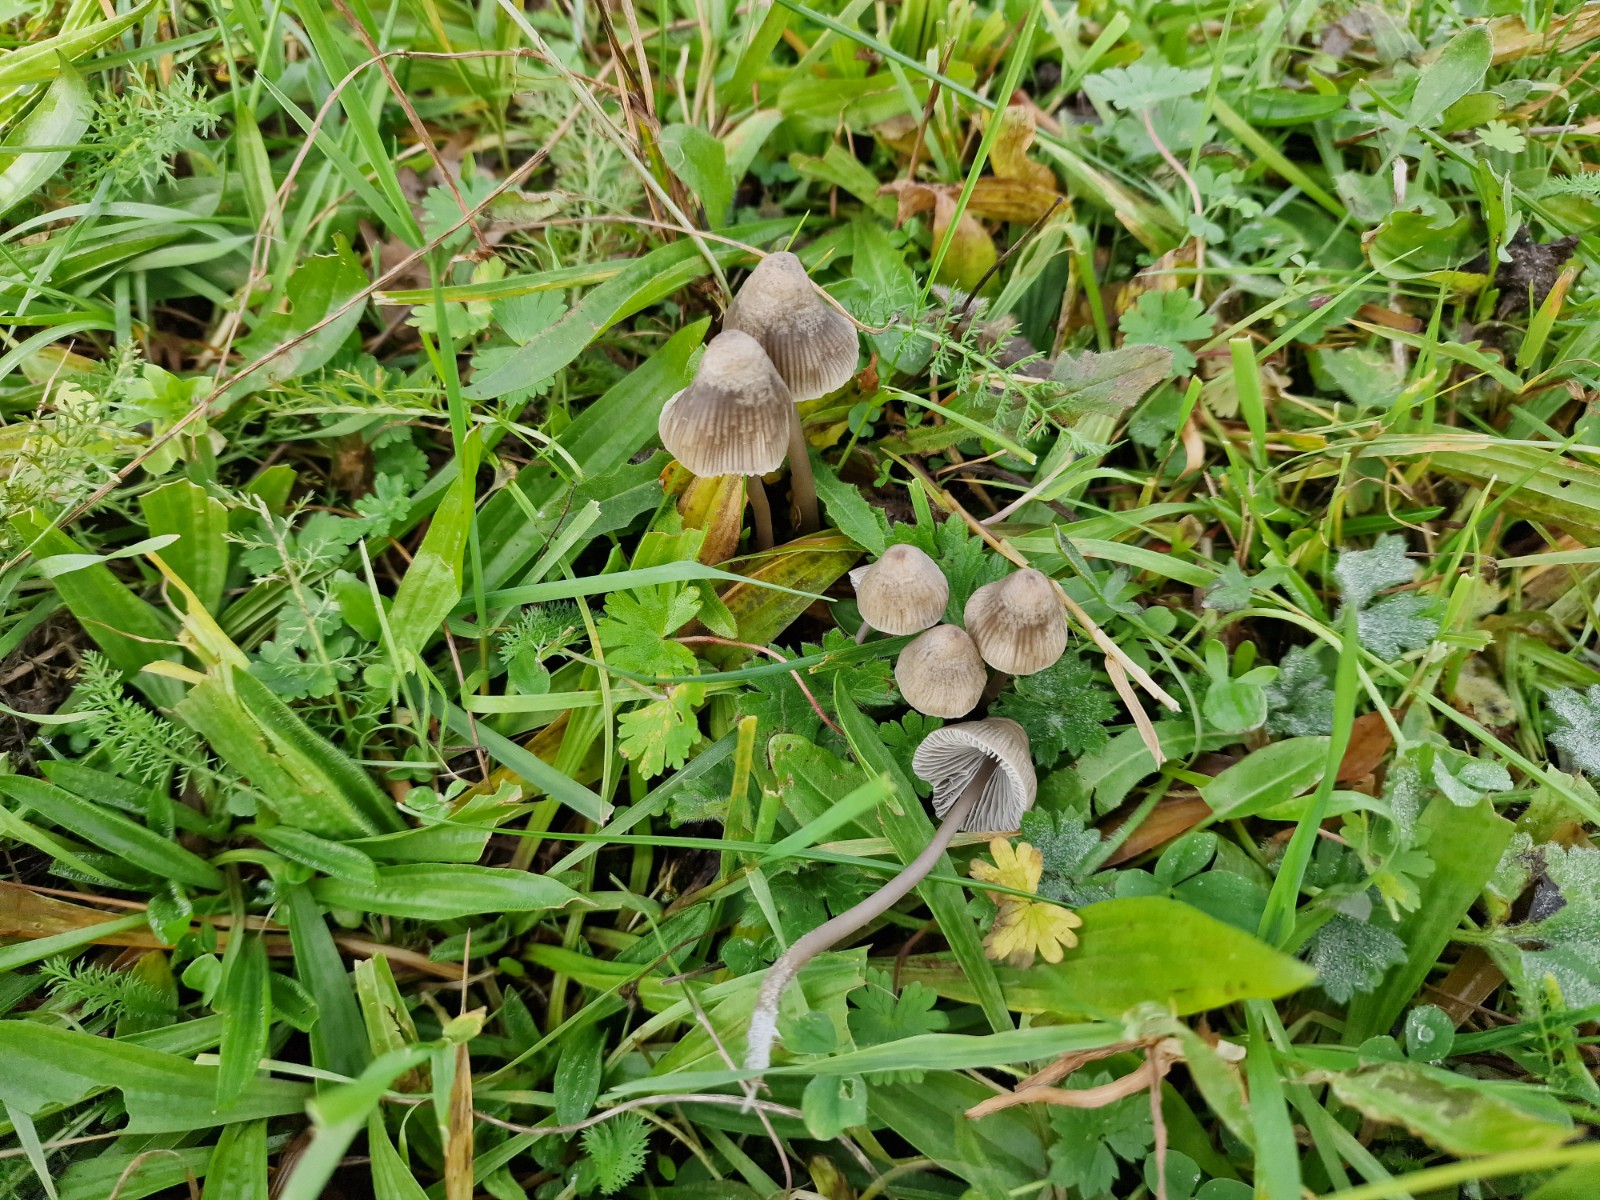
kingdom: Fungi
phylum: Basidiomycota
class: Agaricomycetes
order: Agaricales
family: Mycenaceae
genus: Mycena
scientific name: Mycena aetites
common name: plæne-huesvamp
